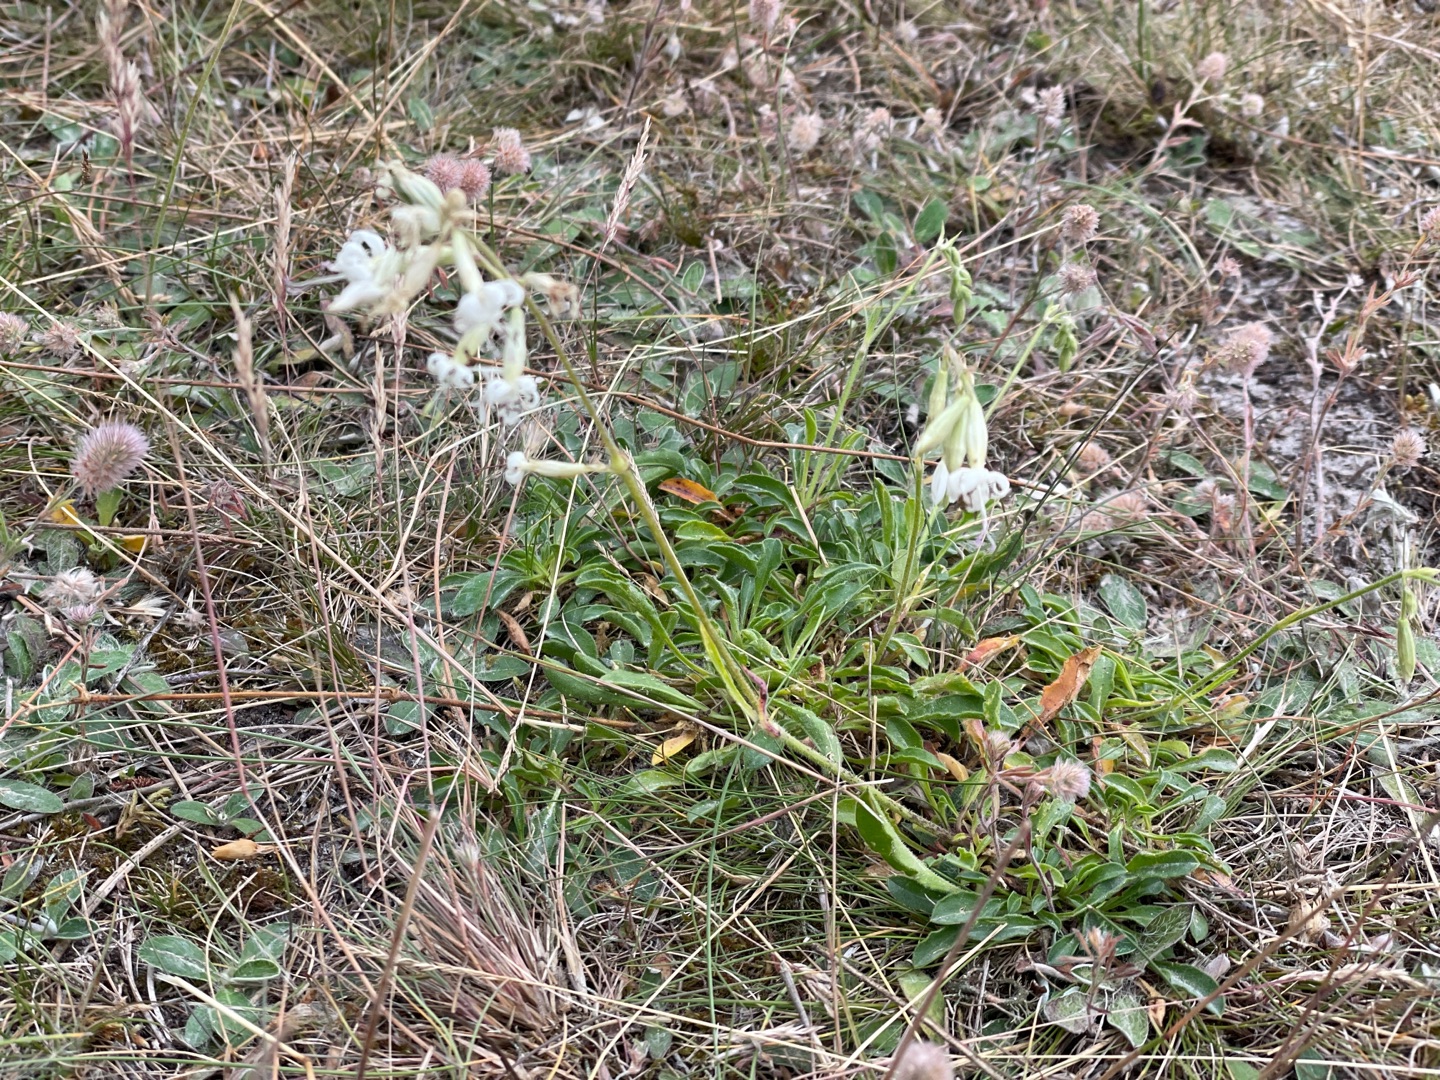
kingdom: Plantae
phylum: Tracheophyta
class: Magnoliopsida
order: Caryophyllales
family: Caryophyllaceae
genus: Silene
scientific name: Silene nutans
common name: Nikkende limurt
